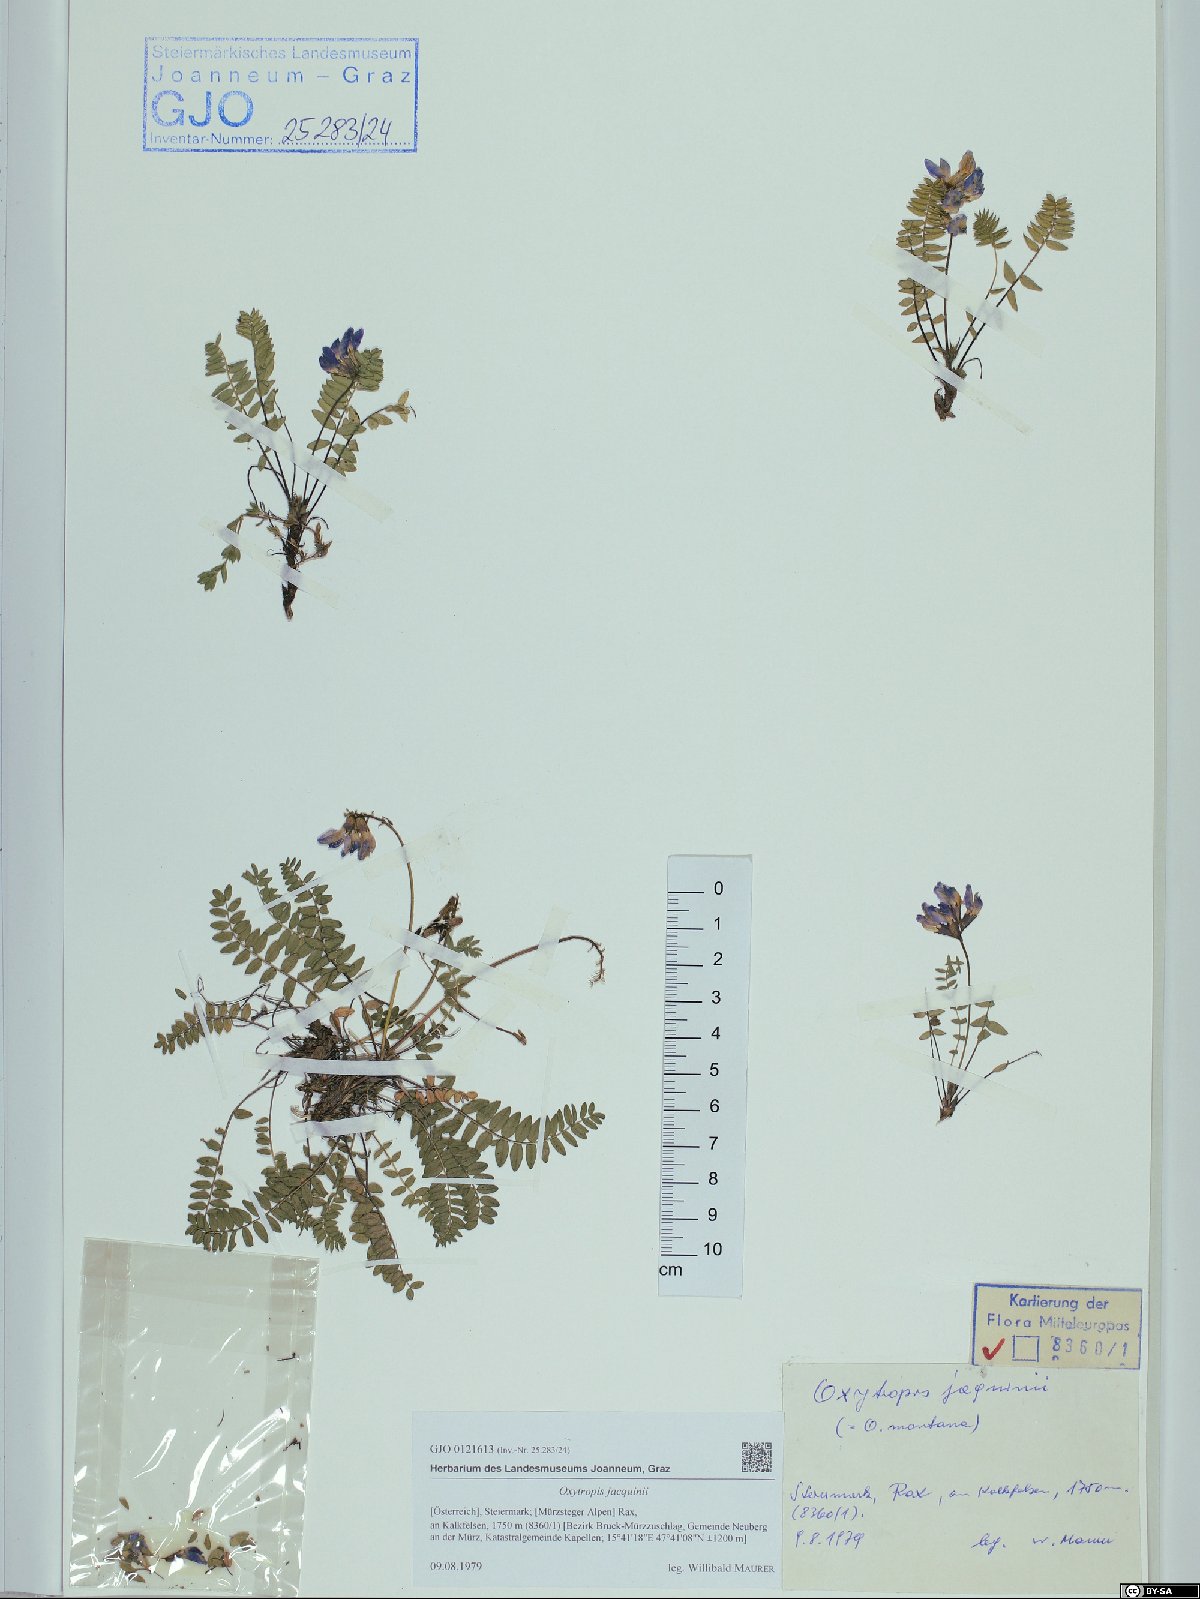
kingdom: Plantae
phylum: Tracheophyta
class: Magnoliopsida
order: Fabales
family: Fabaceae
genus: Oxytropis
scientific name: Oxytropis montana
